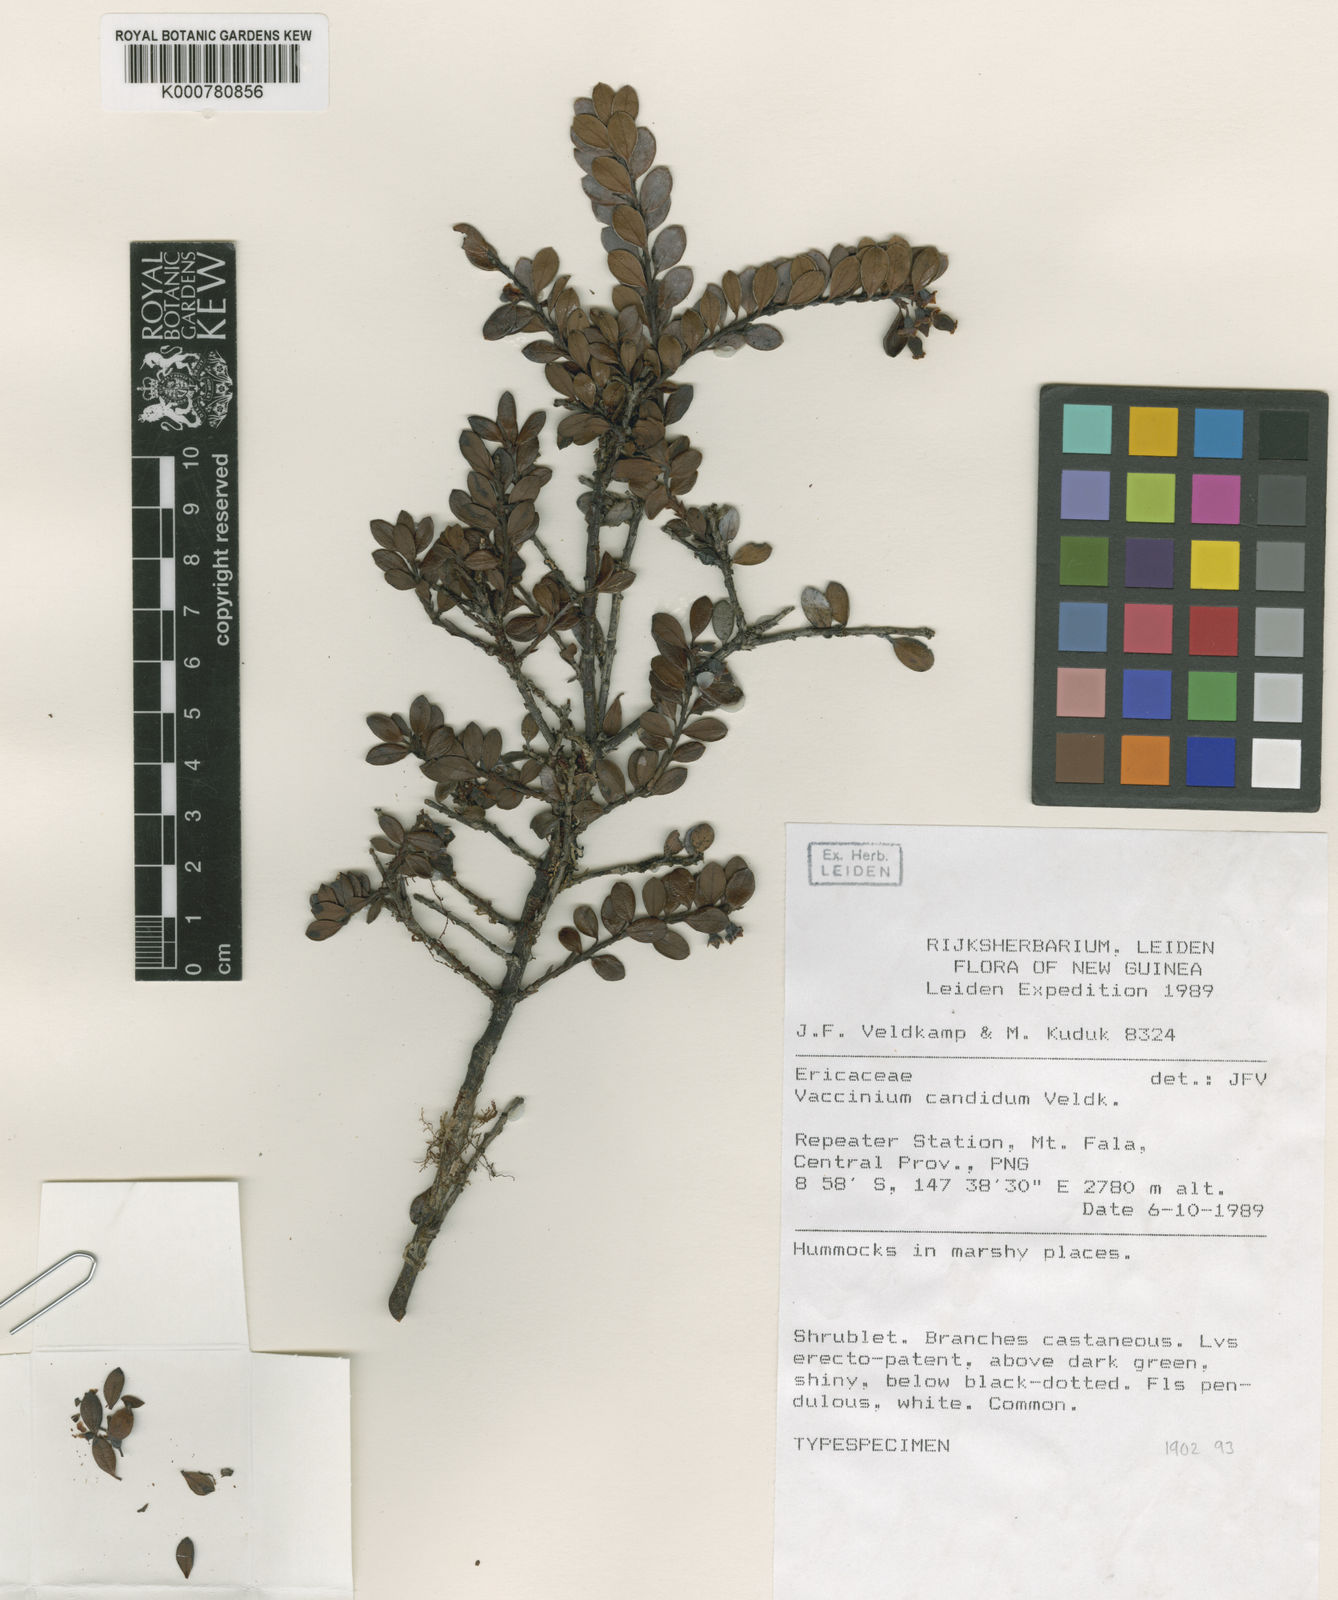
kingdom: Plantae
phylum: Tracheophyta
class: Magnoliopsida
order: Ericales
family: Ericaceae
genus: Vaccinium
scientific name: Vaccinium candidum
